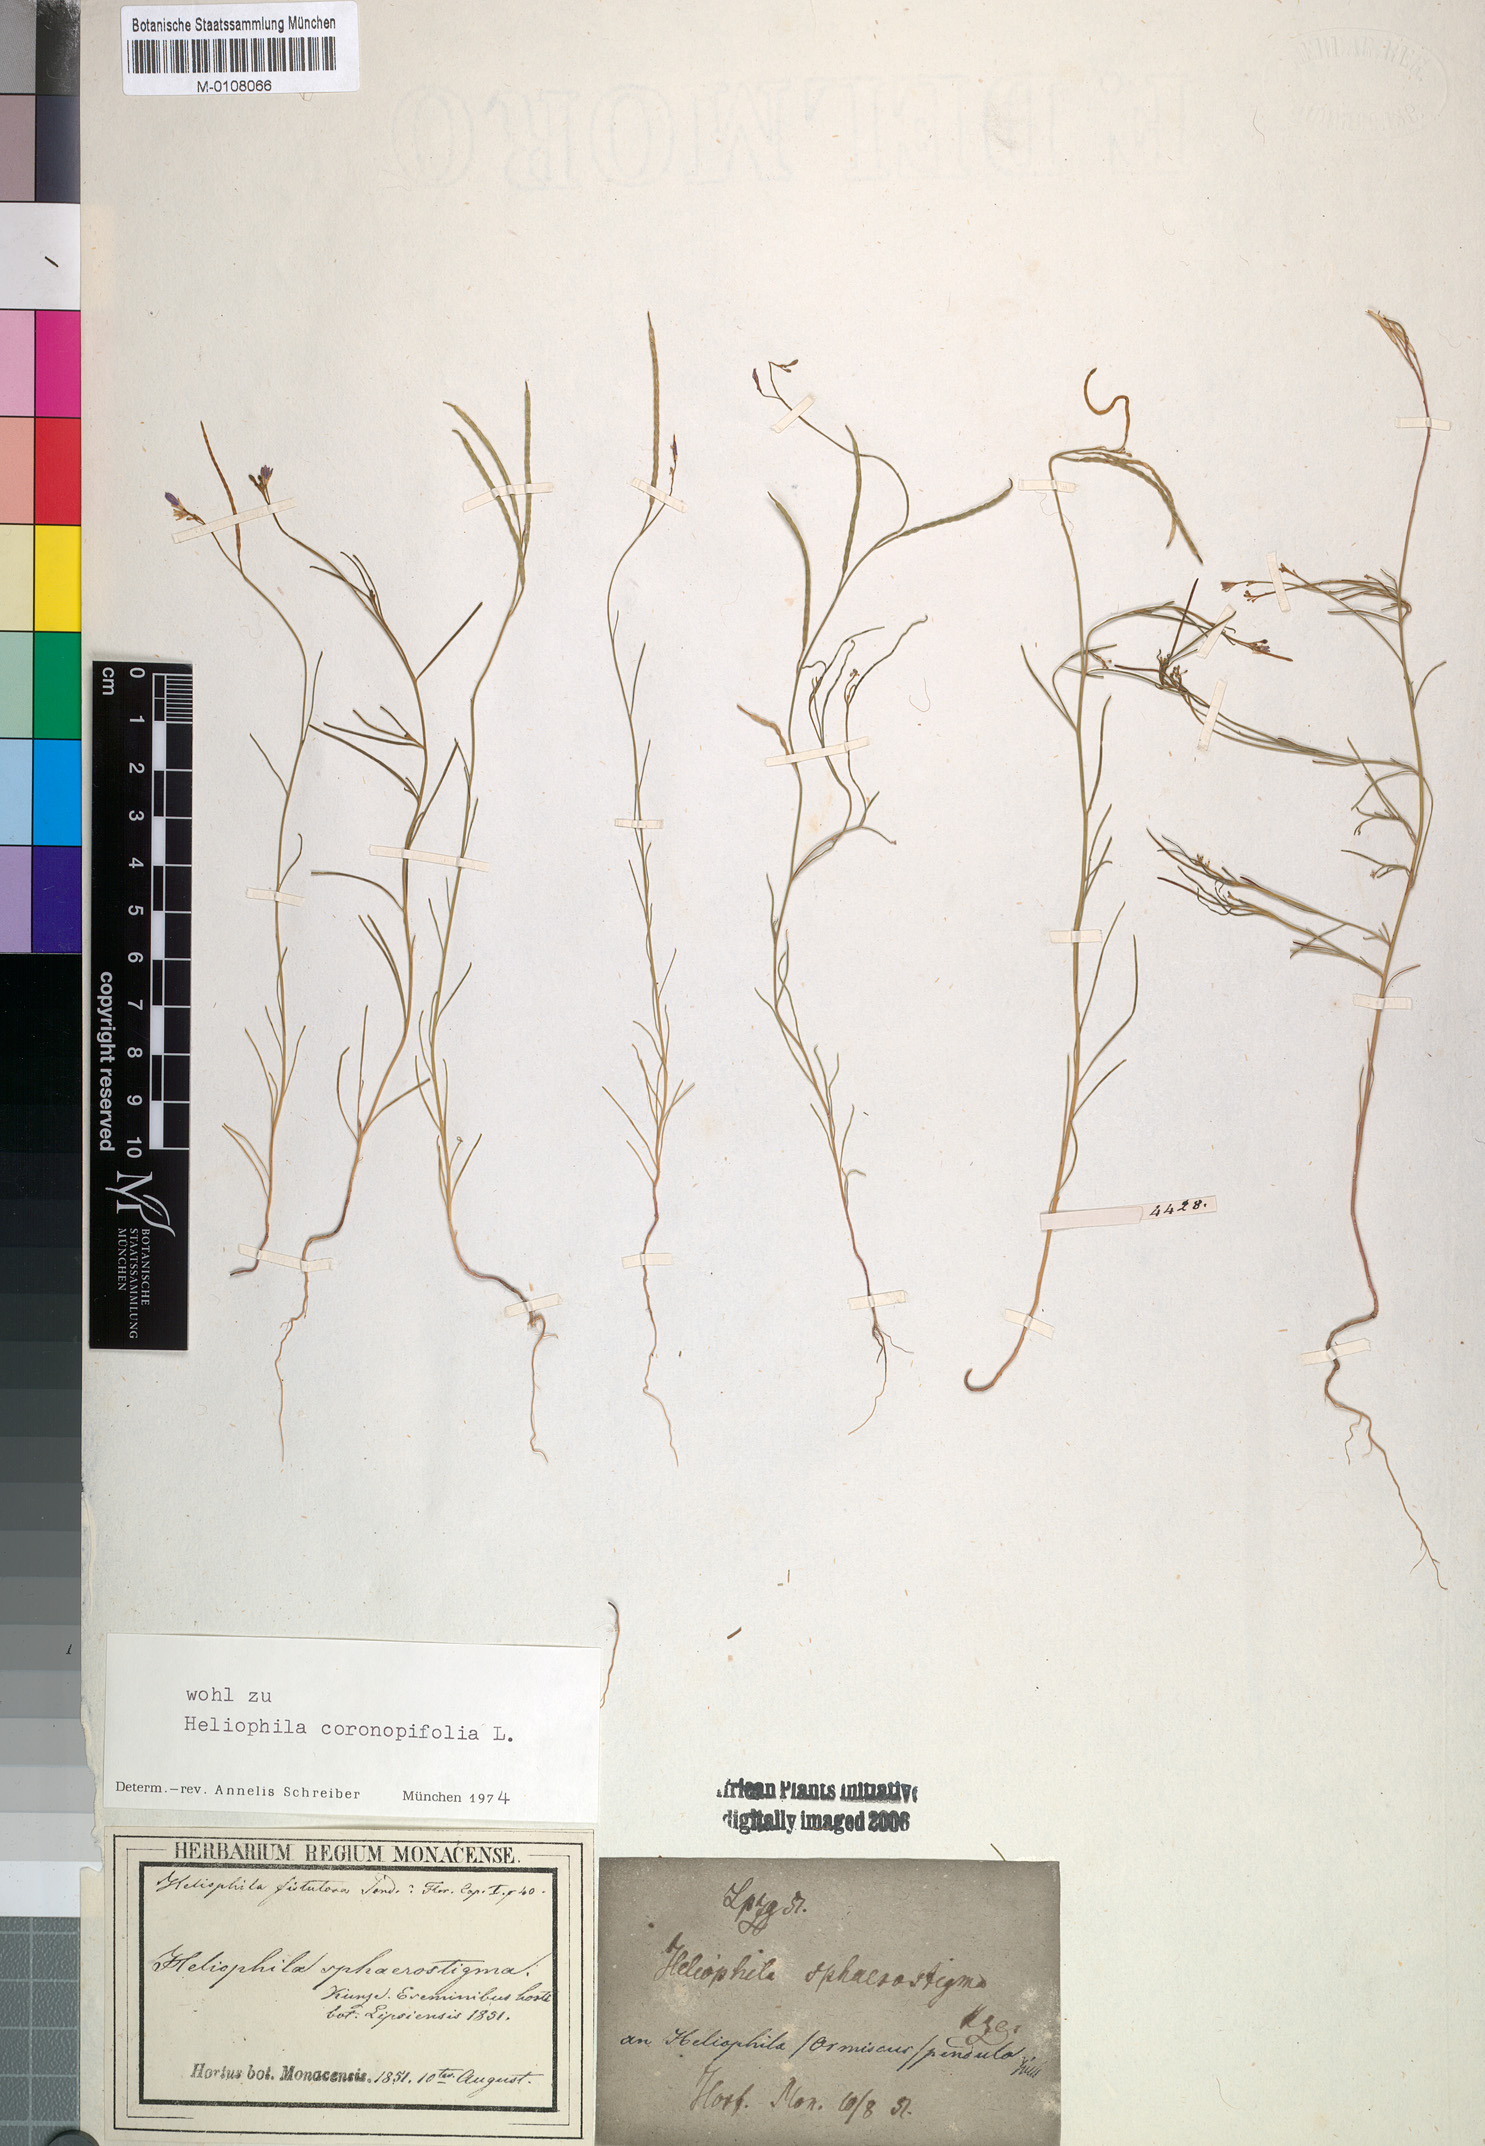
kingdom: Plantae
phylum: Tracheophyta
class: Magnoliopsida
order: Brassicales
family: Brassicaceae
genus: Heliophila
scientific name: Heliophila coronopifolia
